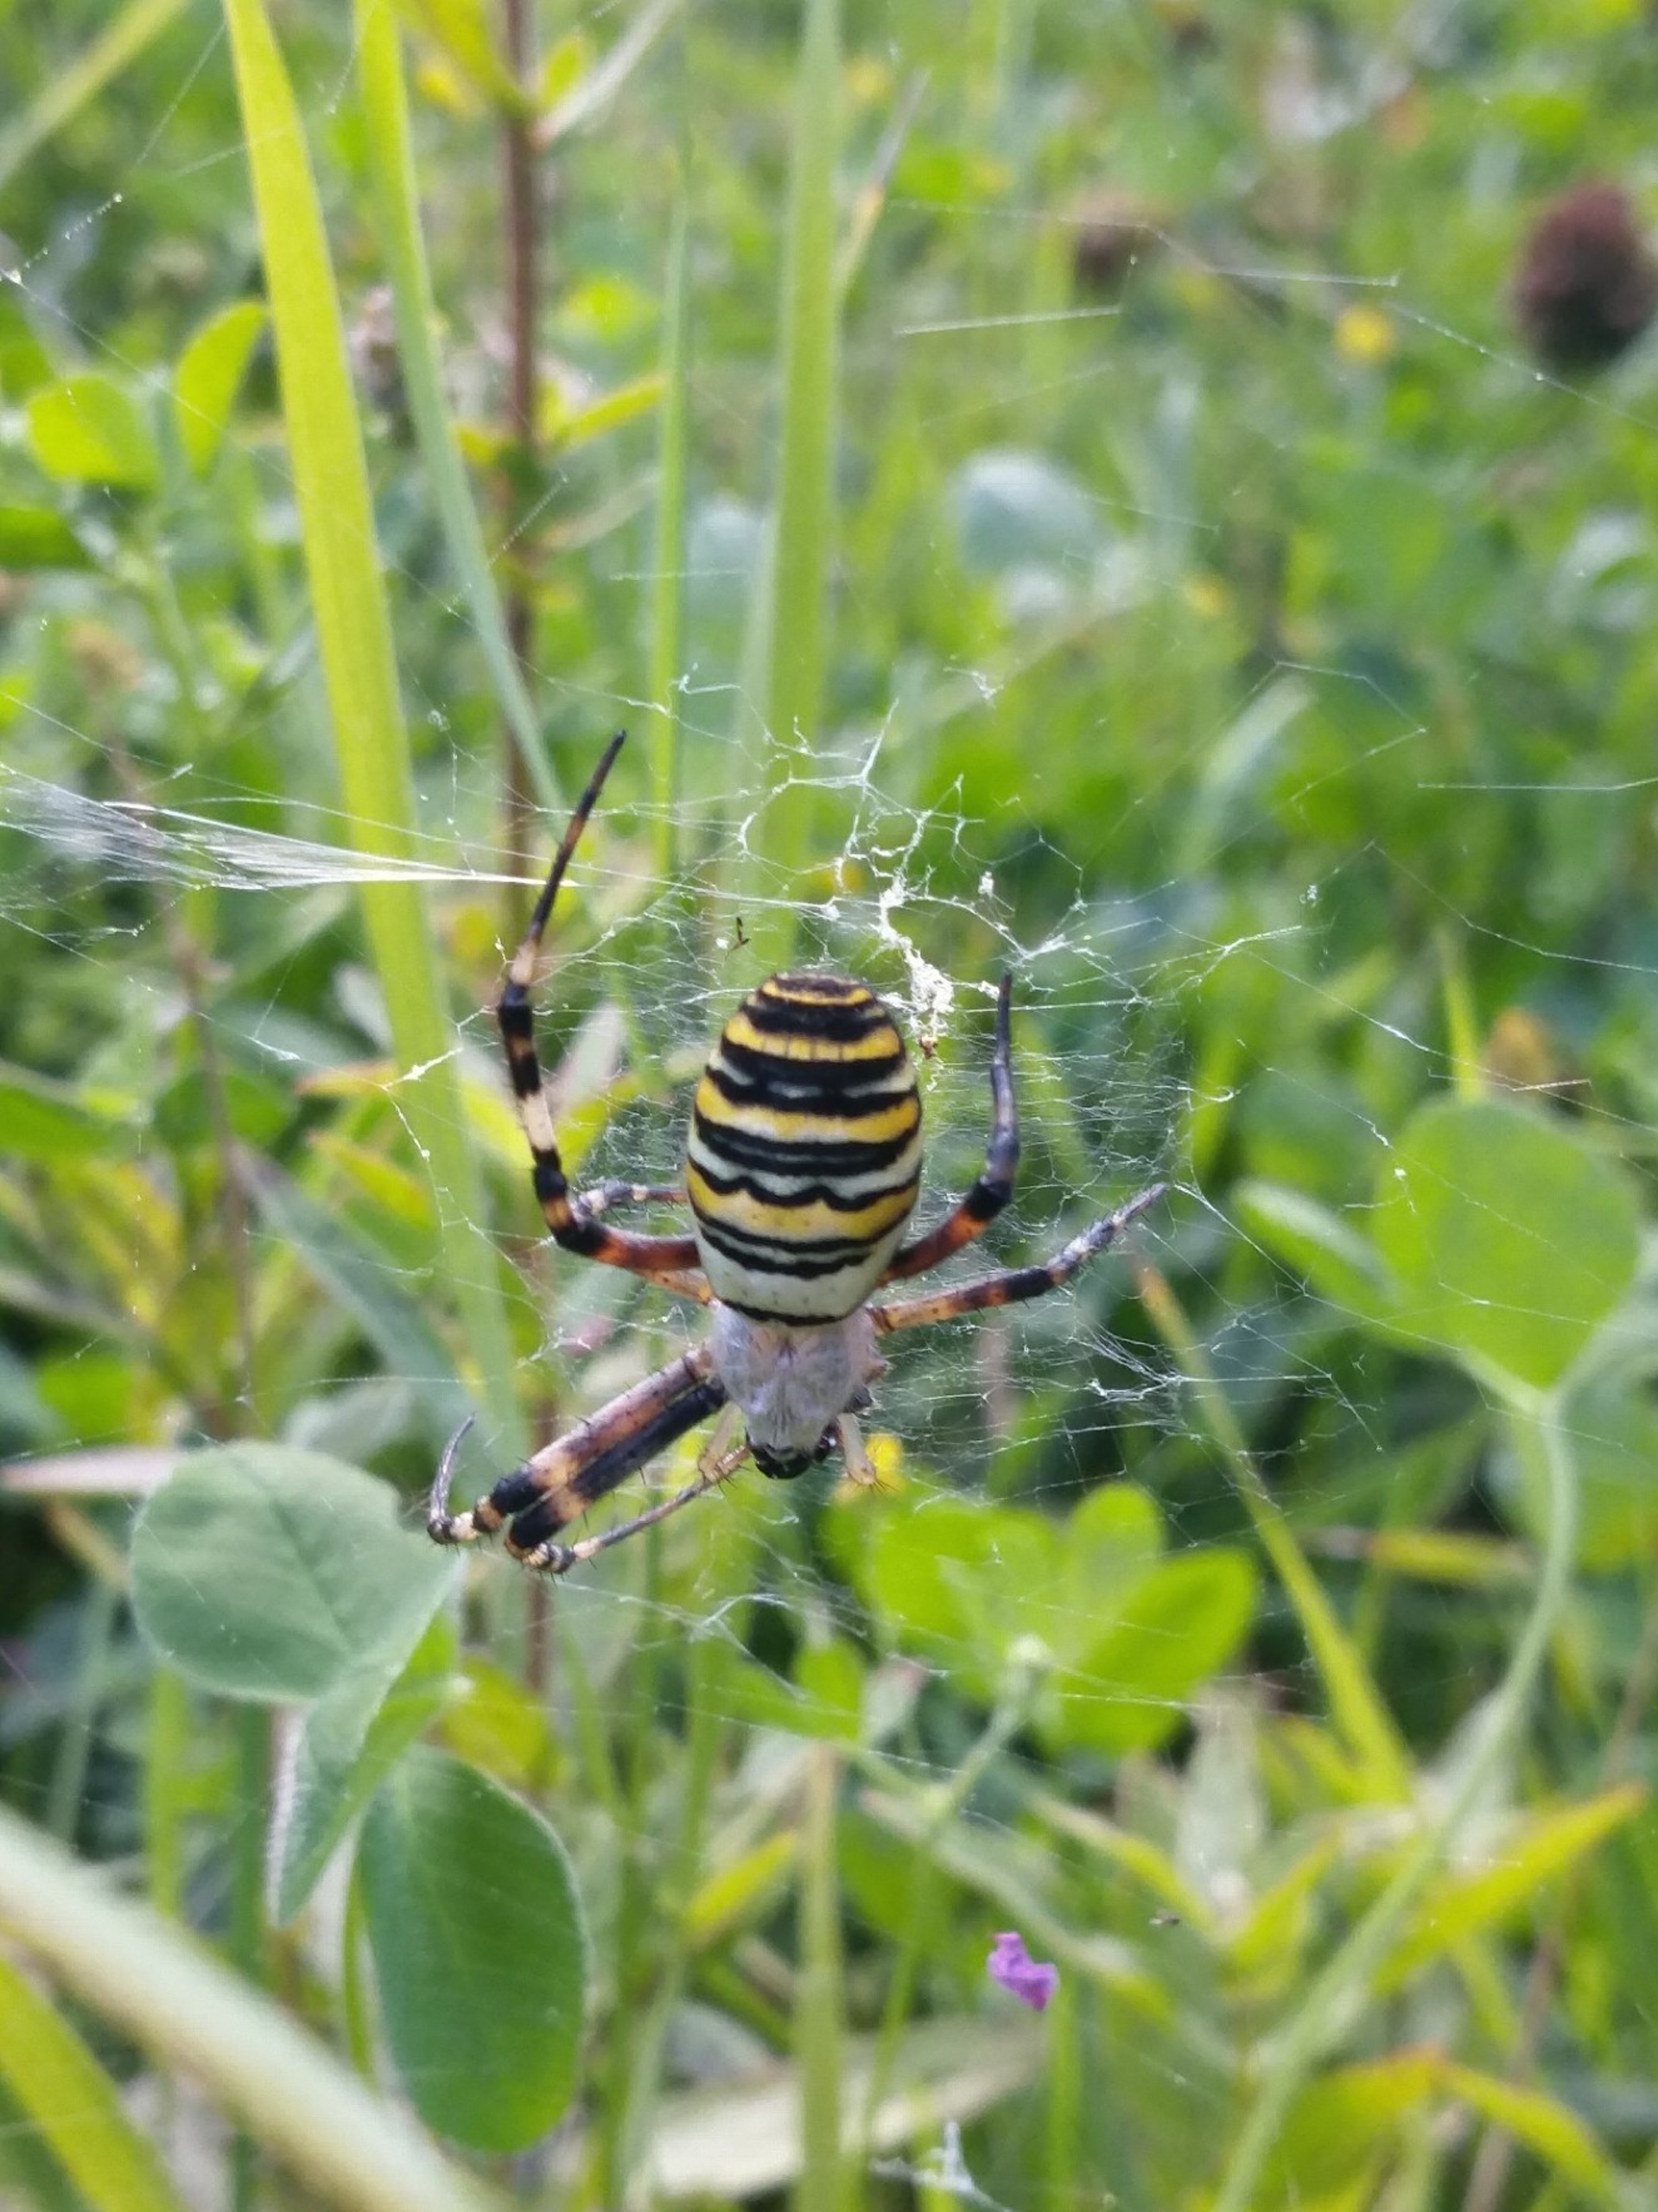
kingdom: Animalia
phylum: Arthropoda
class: Arachnida
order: Araneae
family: Araneidae
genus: Argiope
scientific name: Argiope bruennichi
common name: Hvepseedderkop
